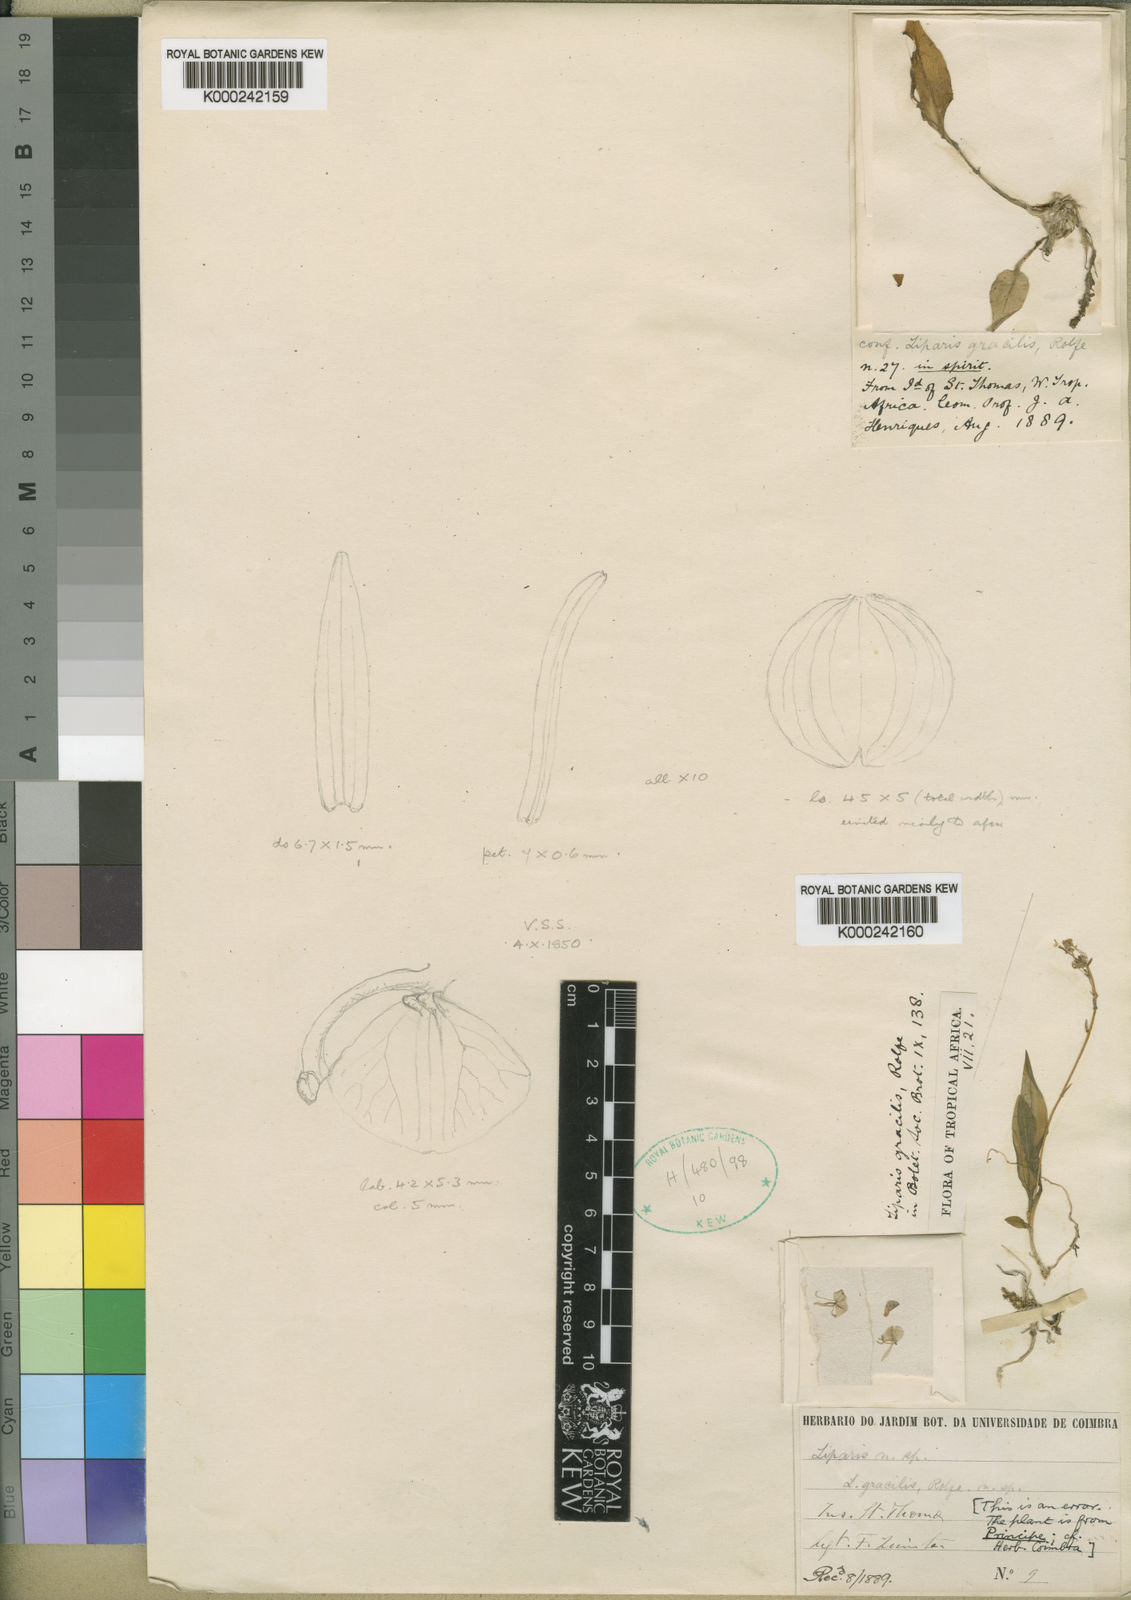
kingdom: Plantae
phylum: Tracheophyta
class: Liliopsida
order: Asparagales
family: Orchidaceae
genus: Liparis
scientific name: Liparis gracilenta
